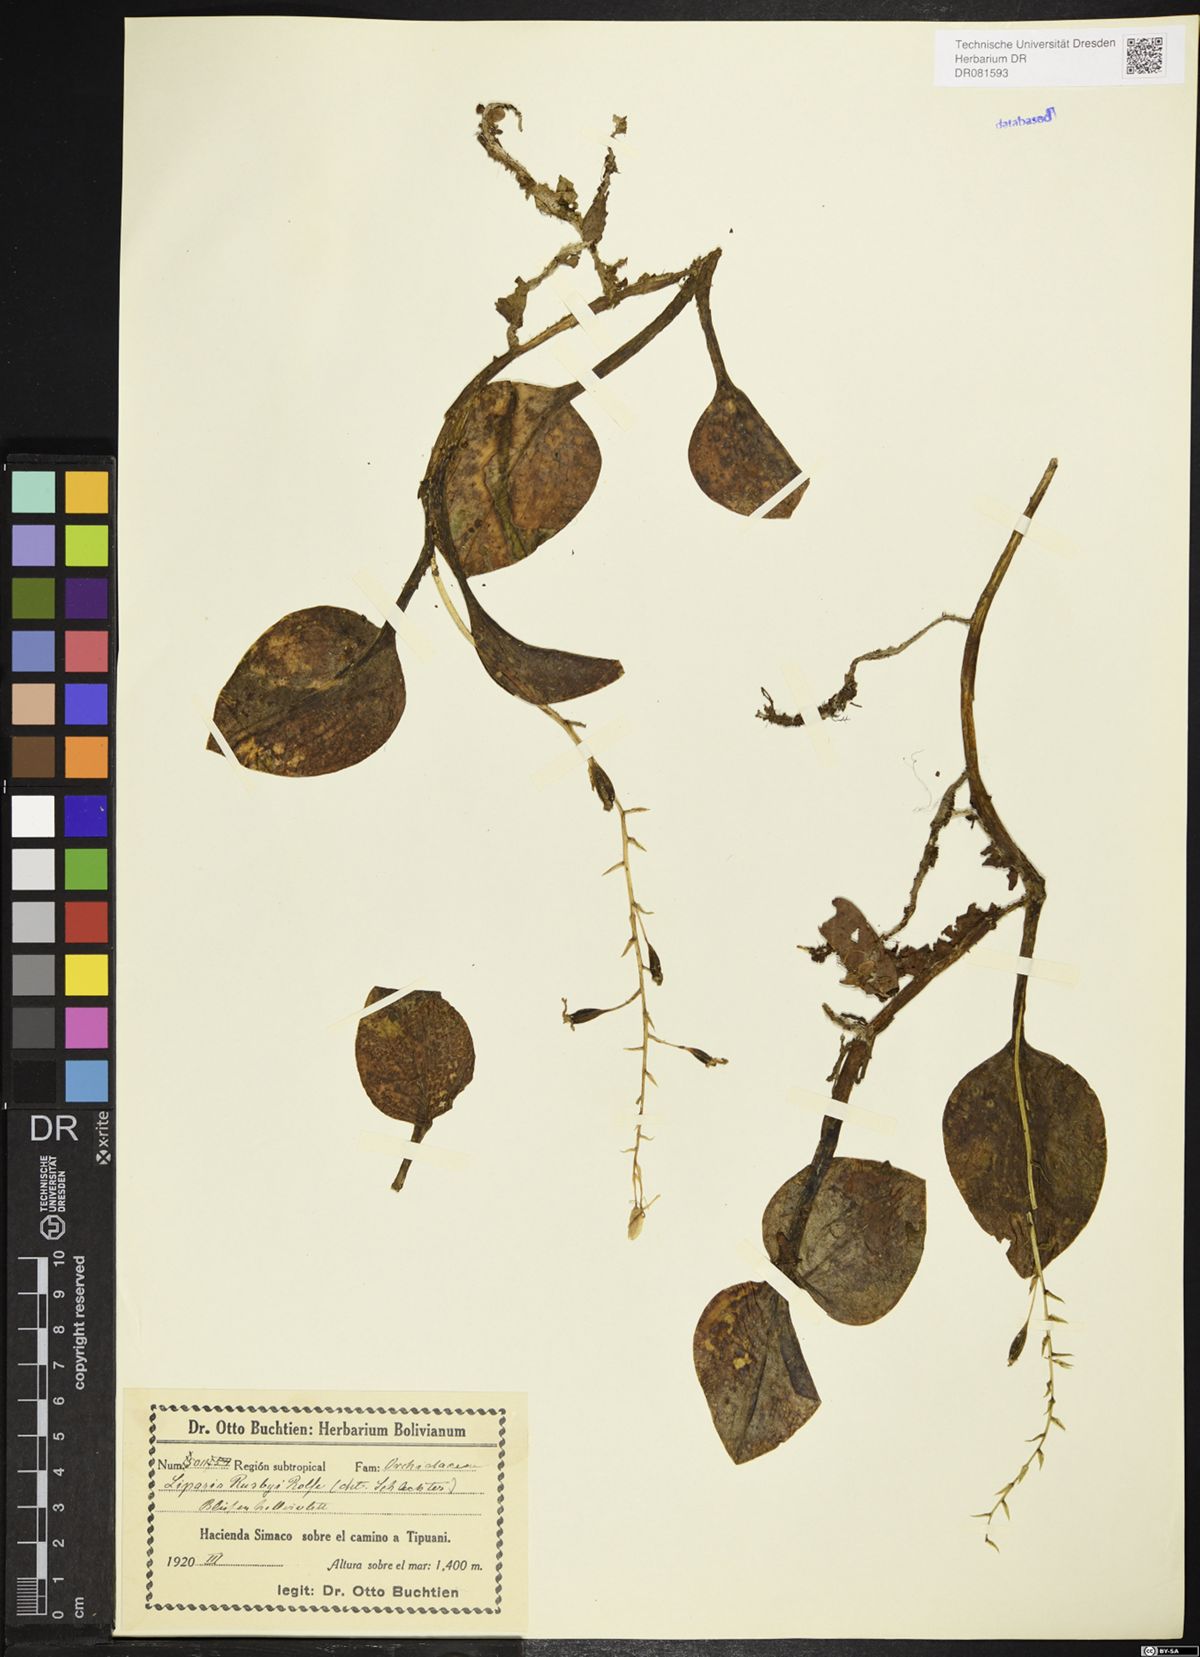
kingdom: Plantae
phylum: Tracheophyta
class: Liliopsida
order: Asparagales
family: Orchidaceae
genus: Liparis
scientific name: Liparis rusbyi
